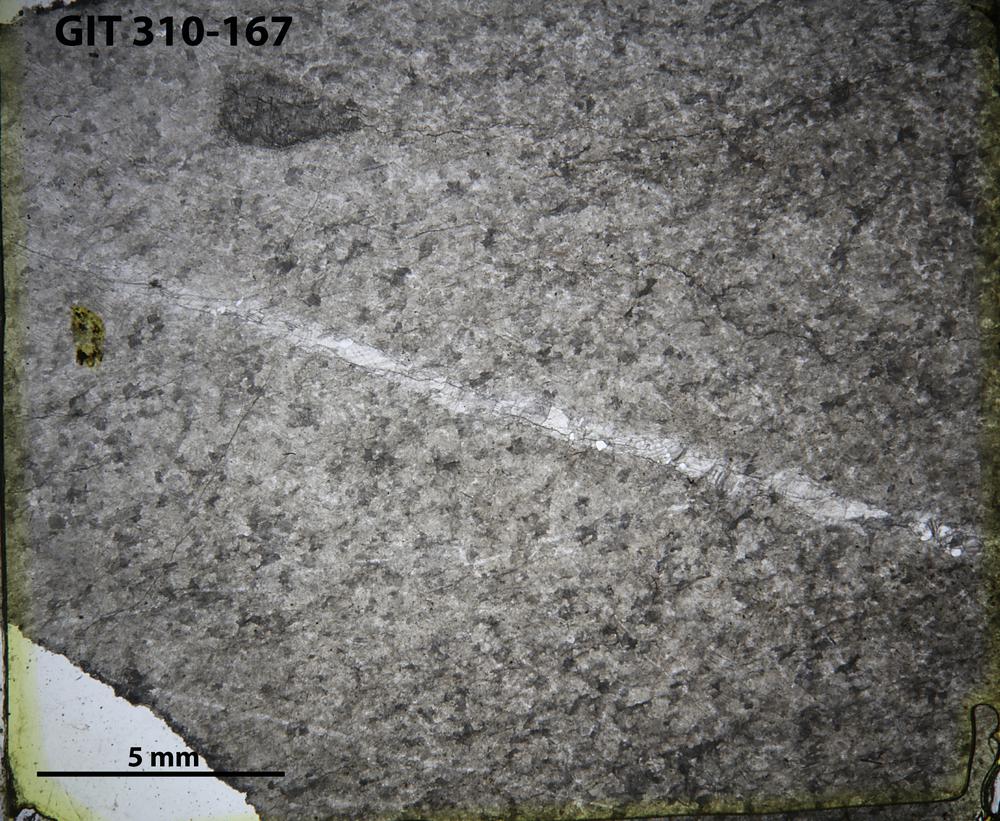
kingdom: Animalia
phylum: Porifera
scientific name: Porifera
